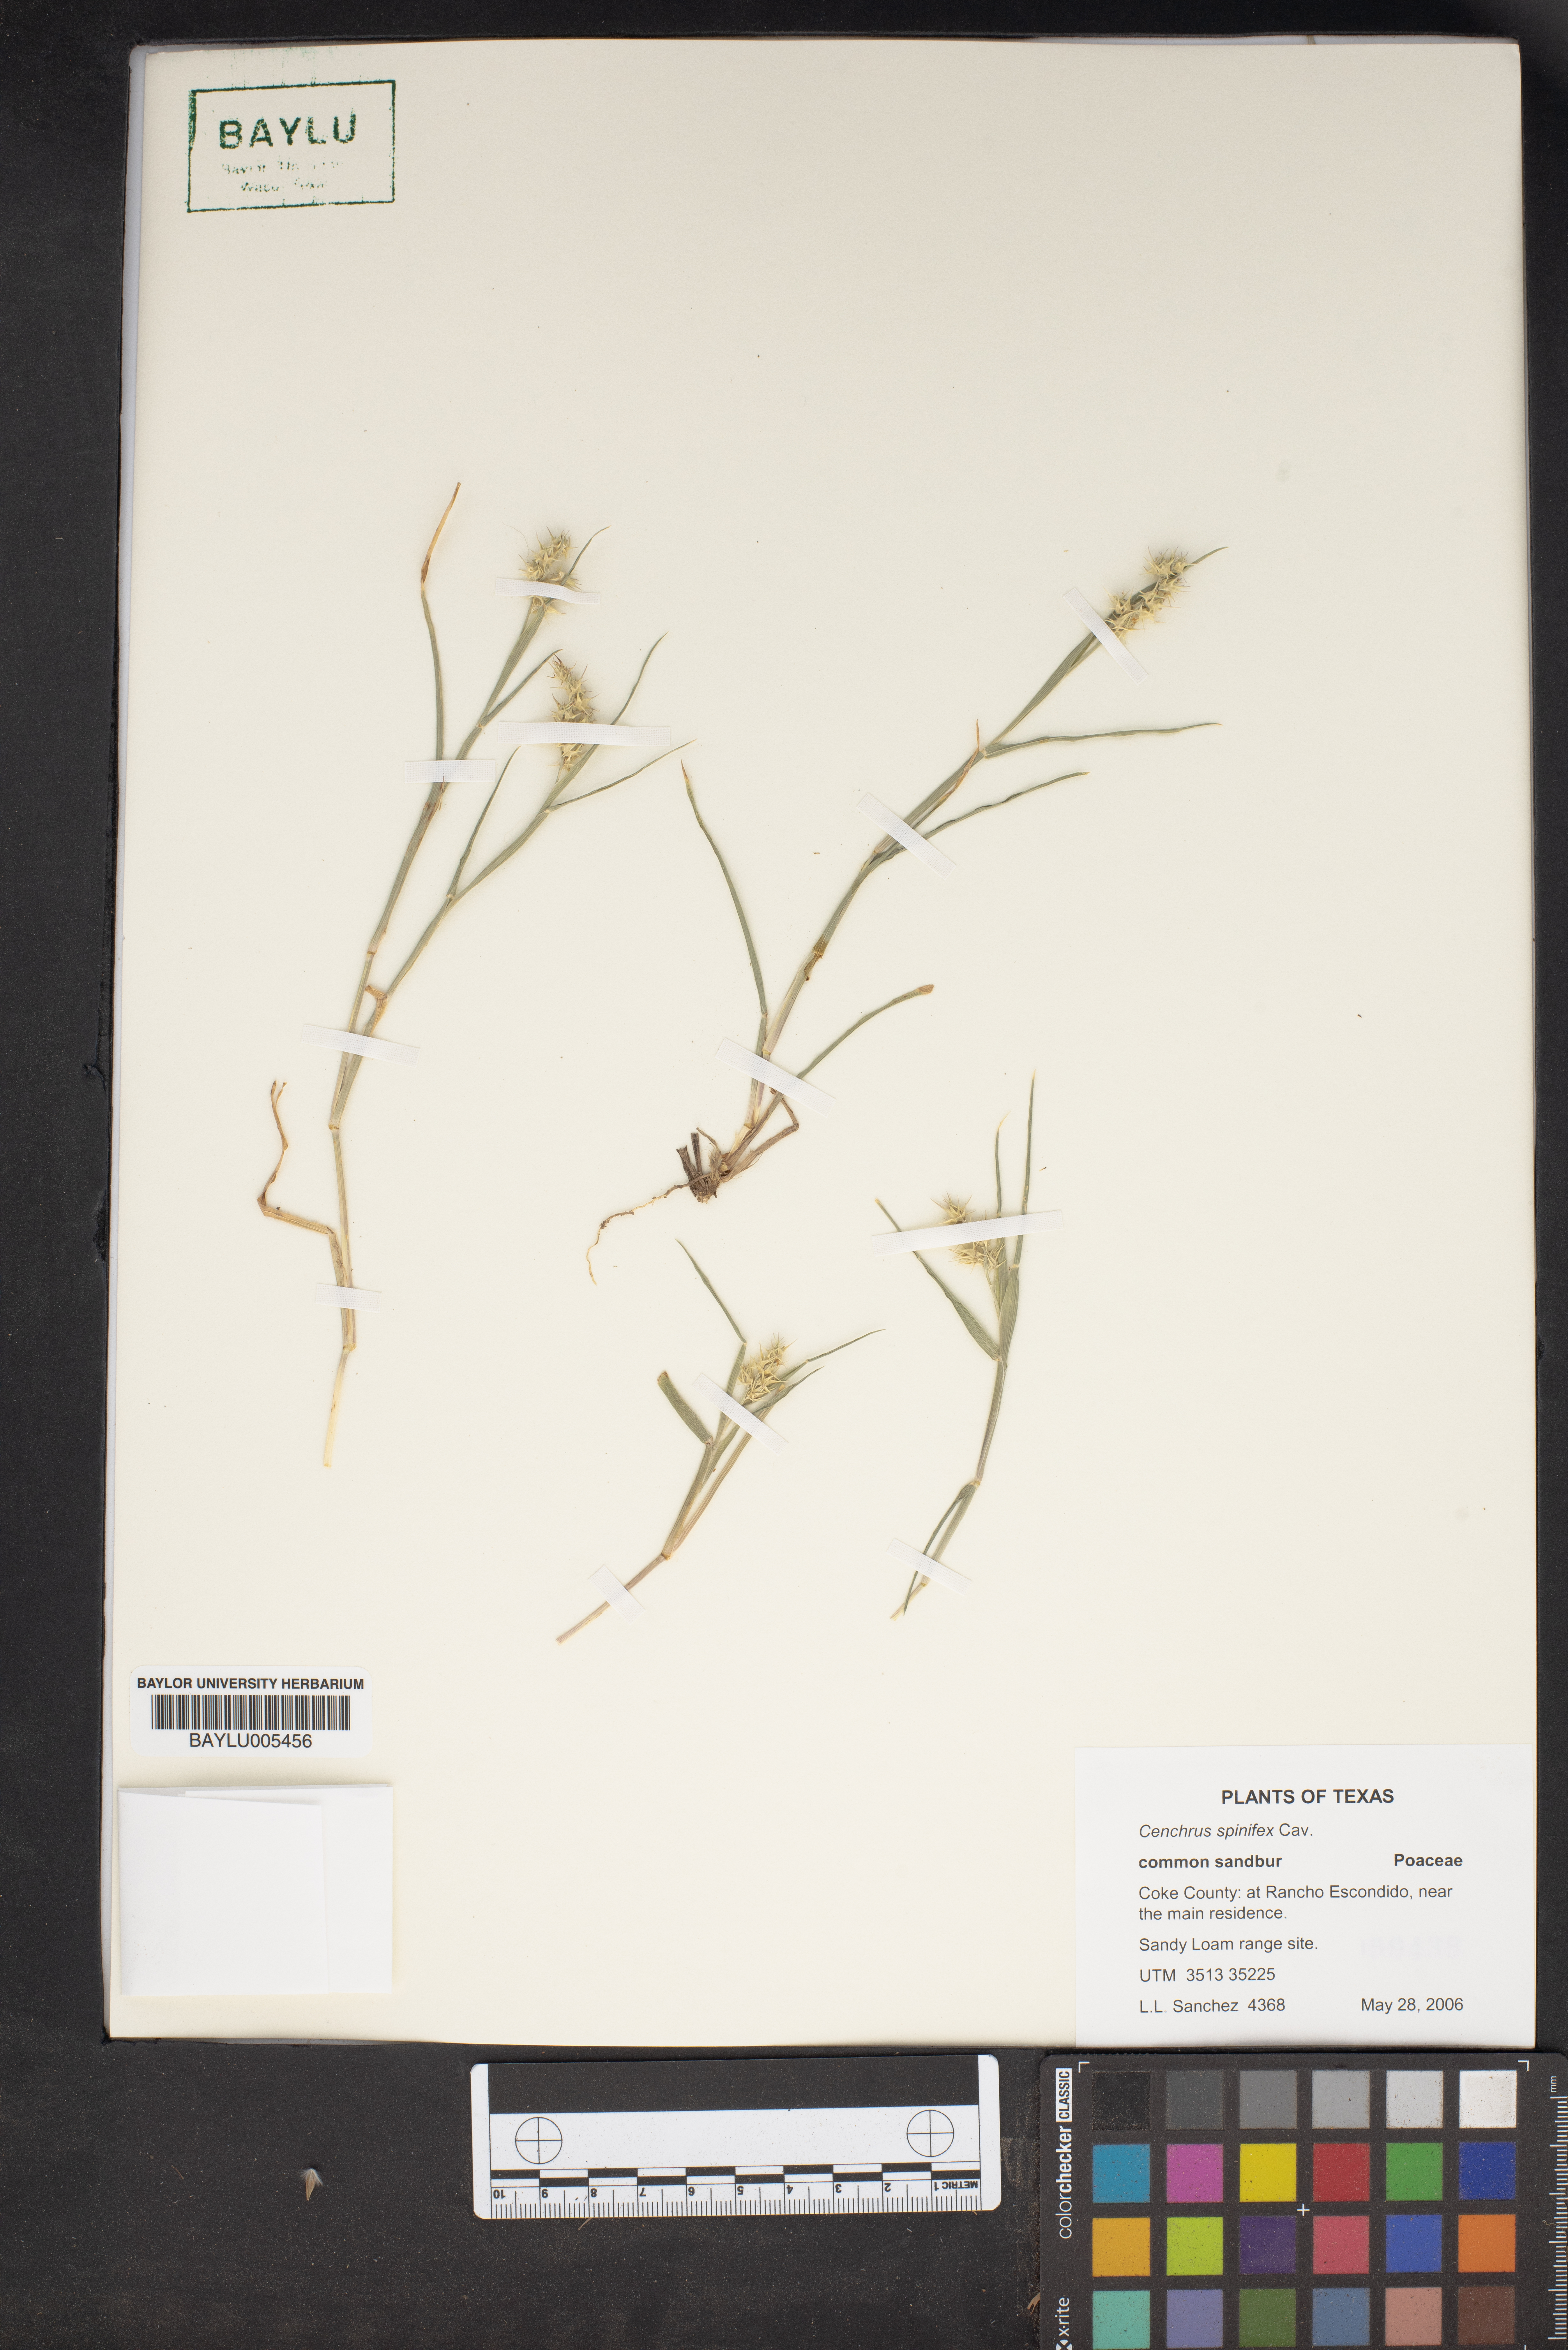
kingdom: Plantae
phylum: Tracheophyta
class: Liliopsida
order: Poales
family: Poaceae
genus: Cenchrus
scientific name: Cenchrus spinifex
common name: Coast sandbur
